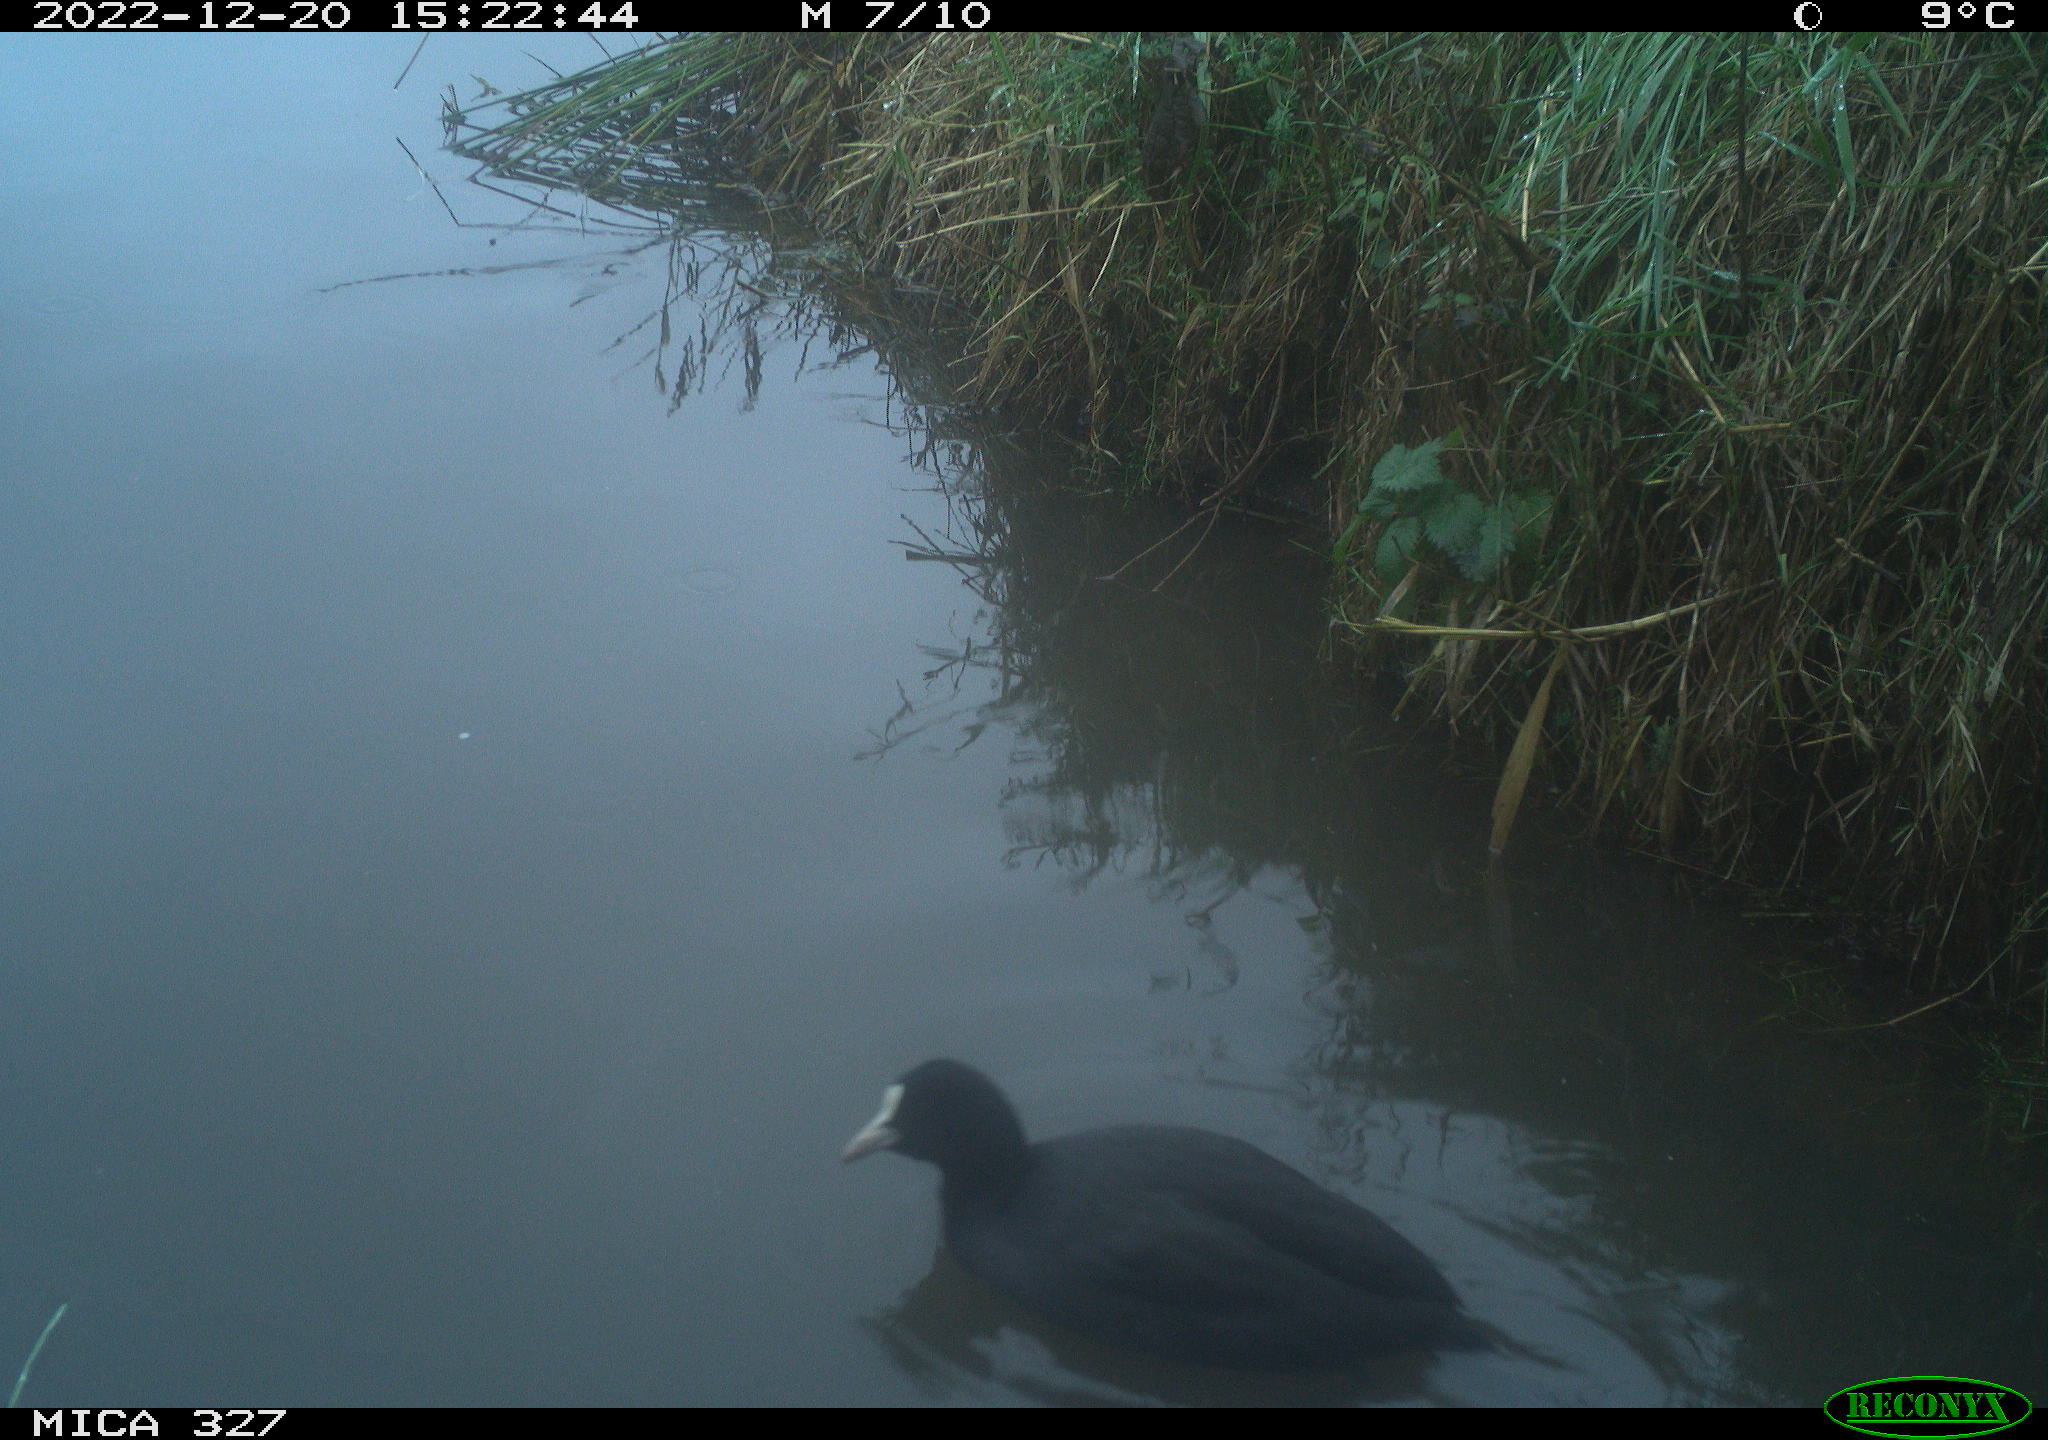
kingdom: Animalia
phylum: Chordata
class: Aves
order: Gruiformes
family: Rallidae
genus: Fulica
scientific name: Fulica atra
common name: Eurasian coot
